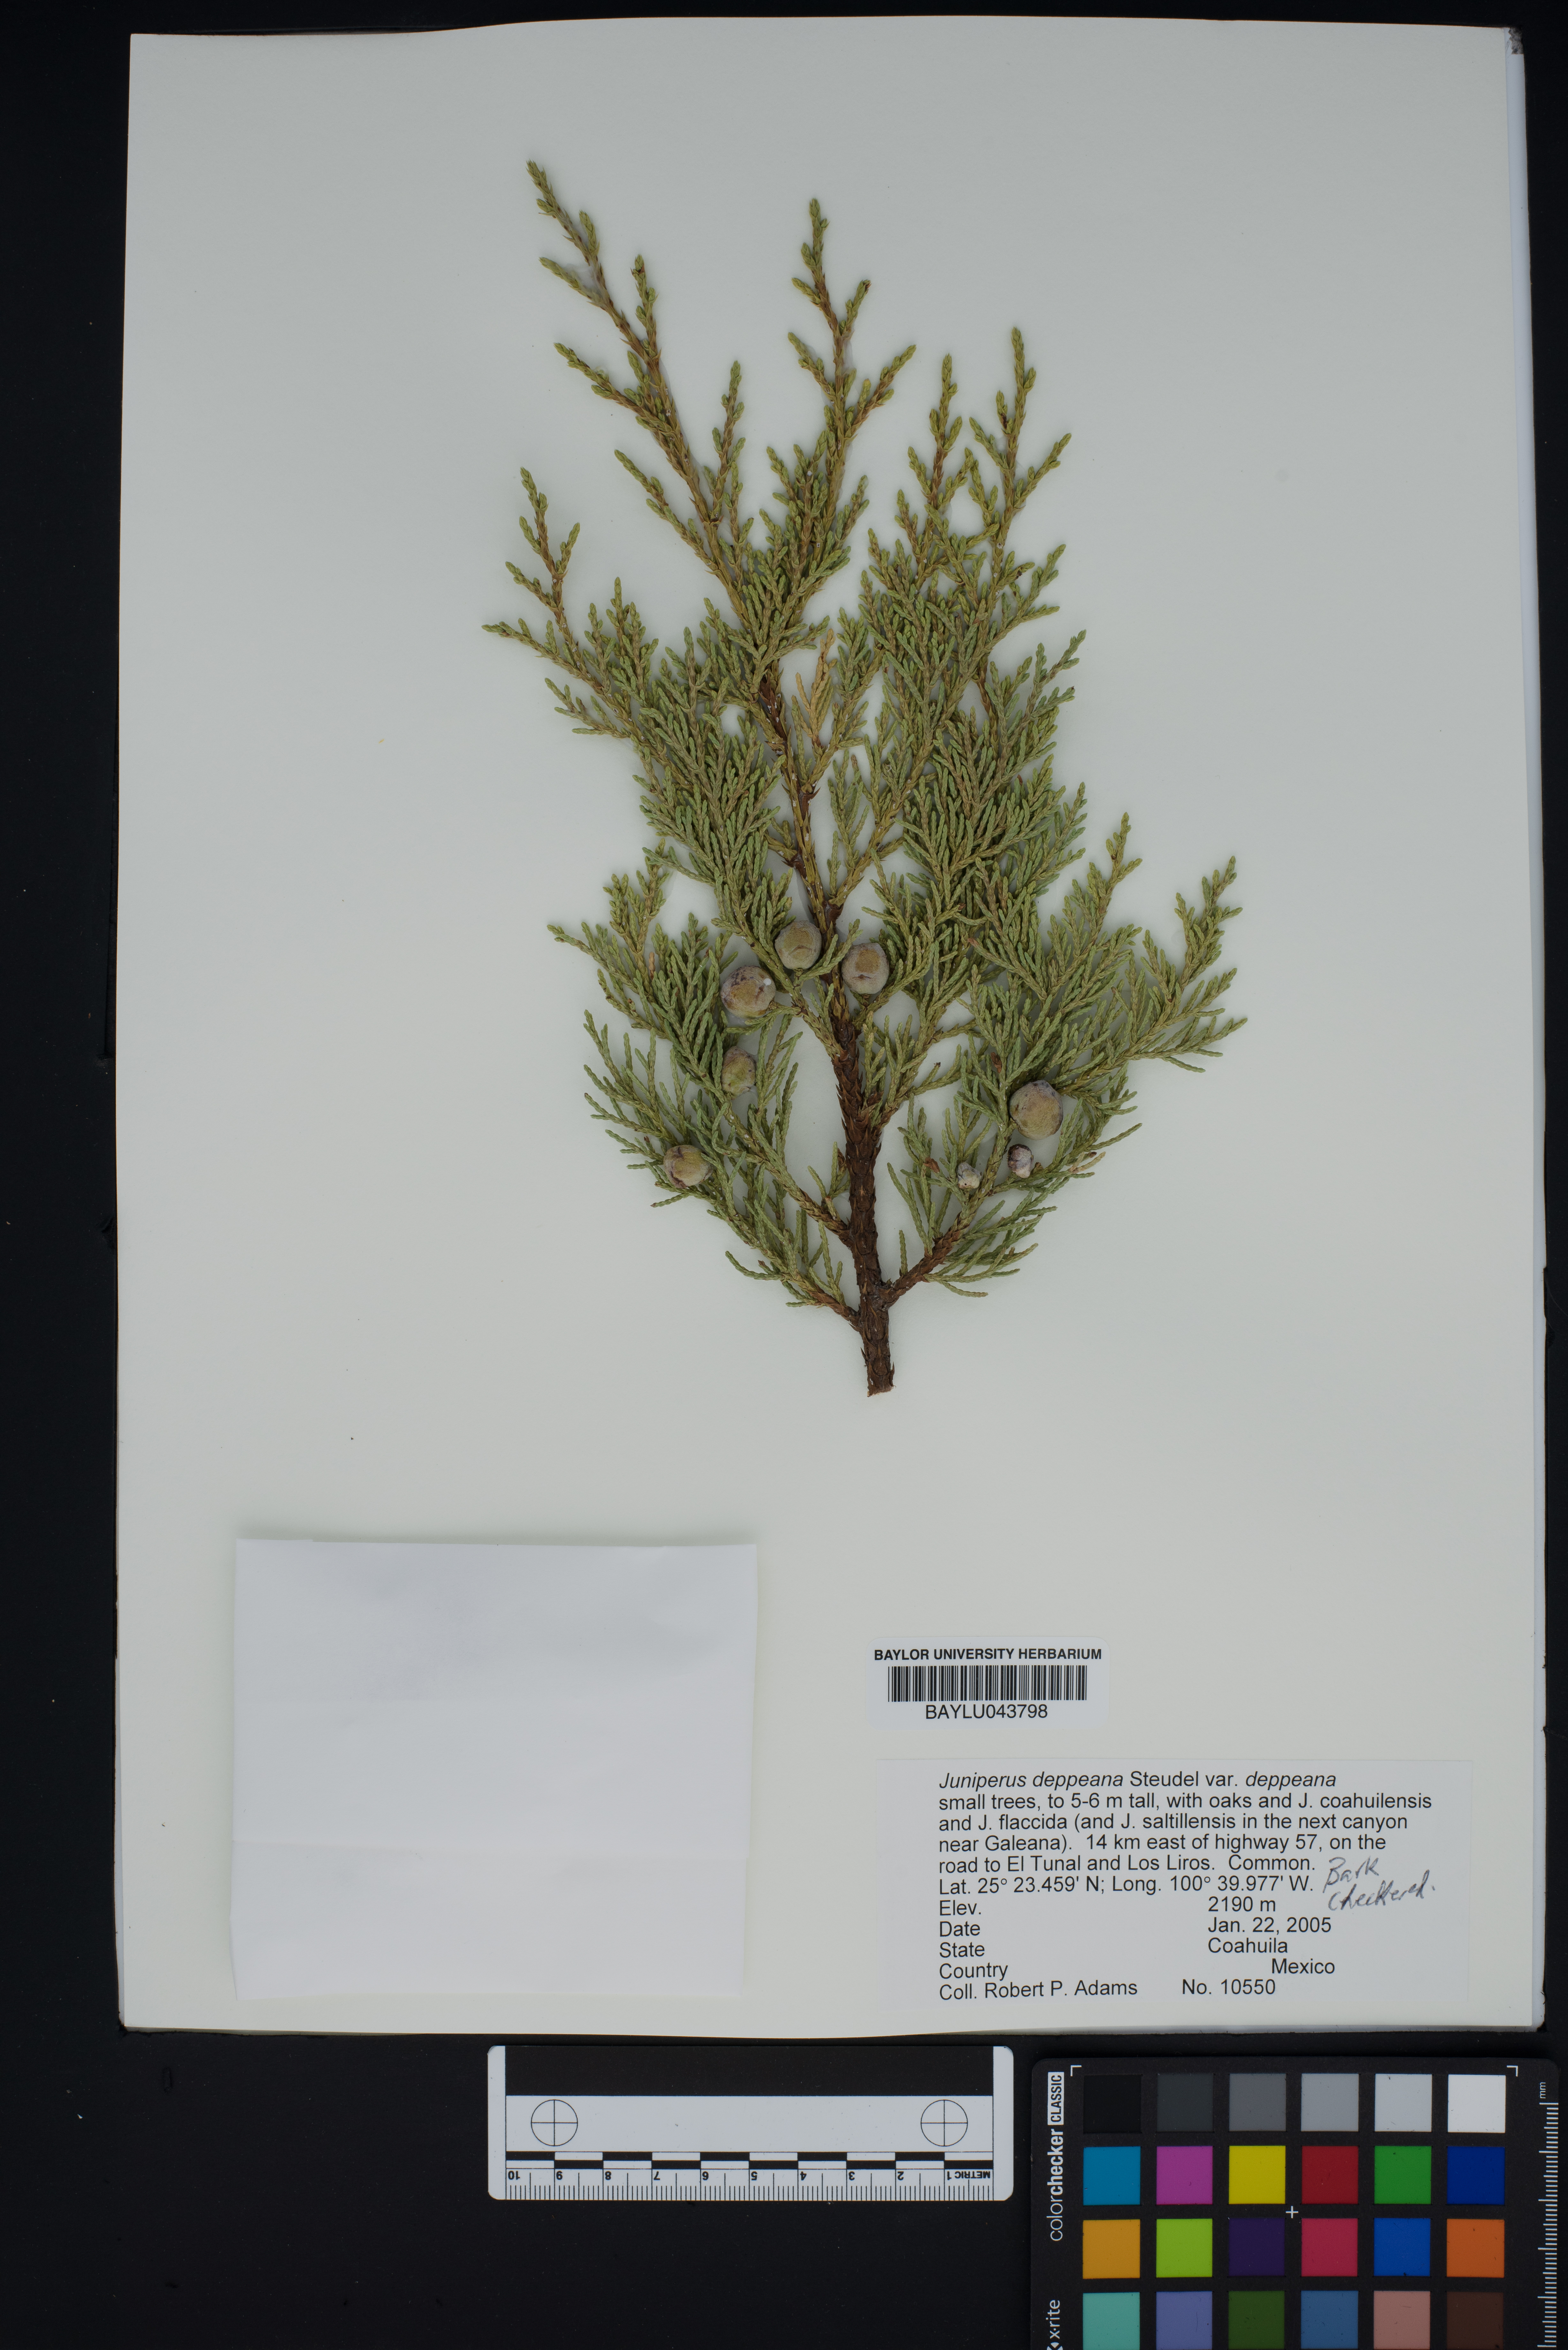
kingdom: Plantae
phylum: Tracheophyta
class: Pinopsida
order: Pinales
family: Cupressaceae
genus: Juniperus
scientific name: Juniperus deppeana
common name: Alligator juniper
